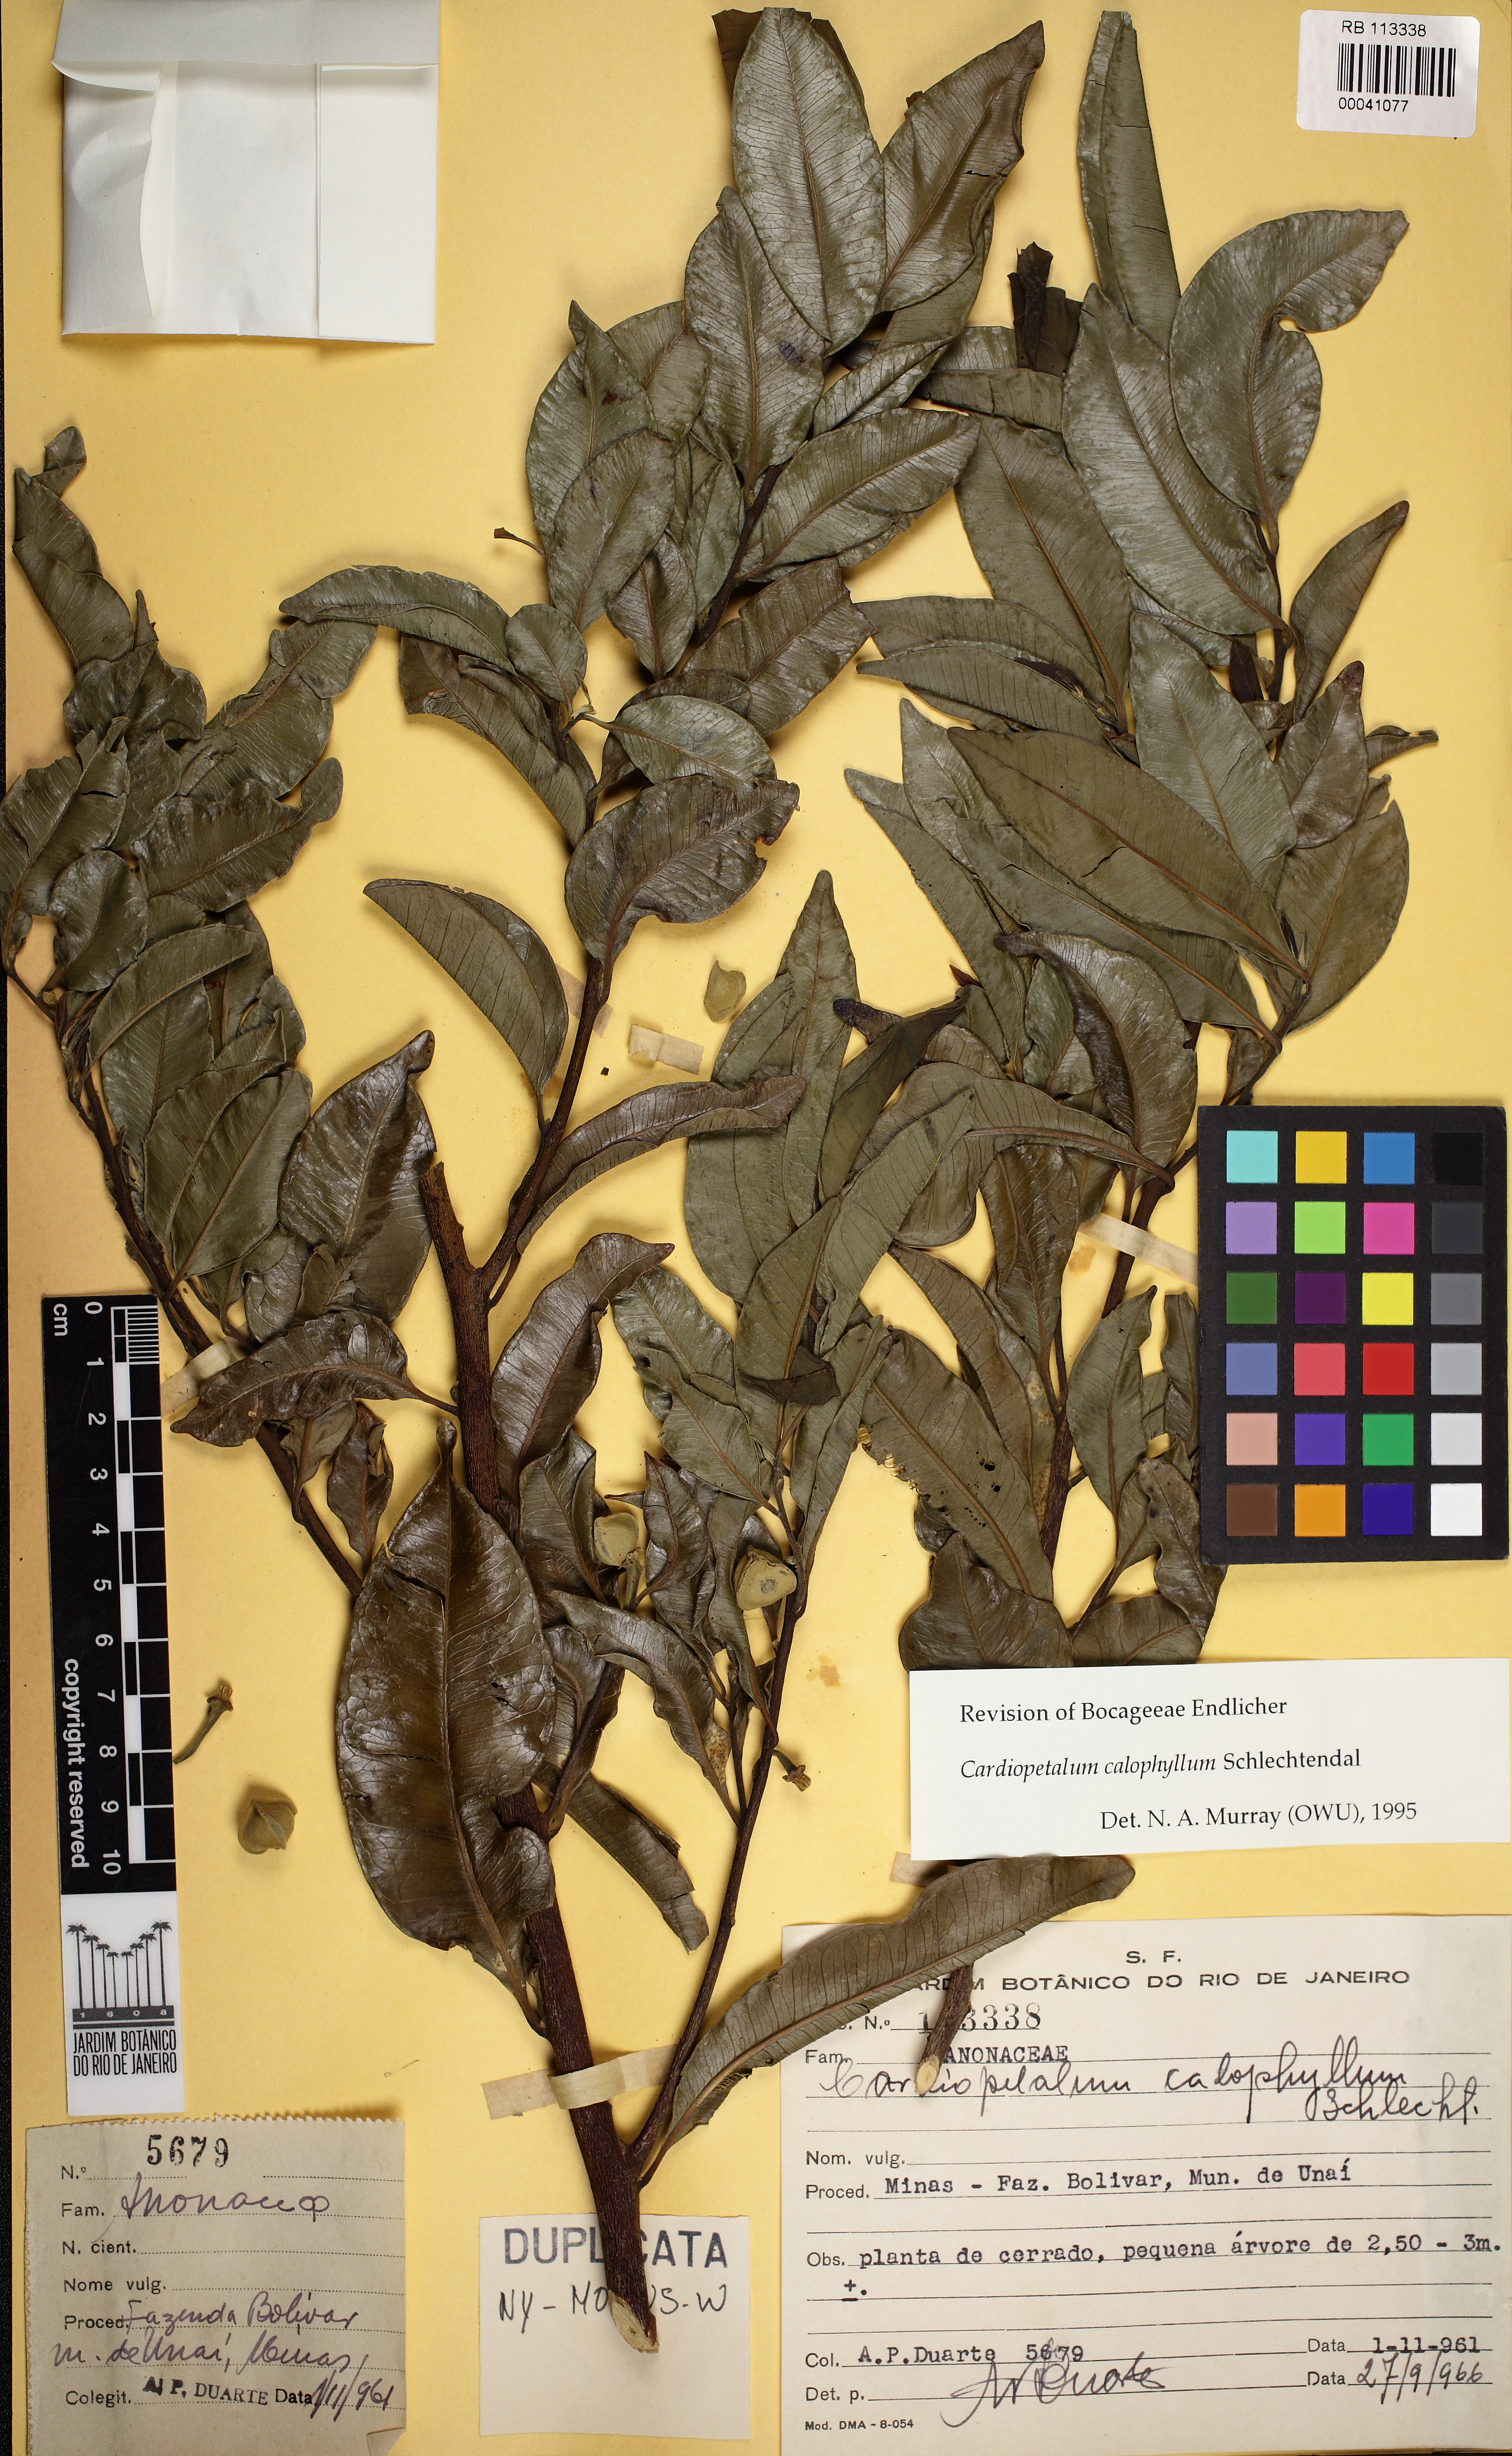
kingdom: Plantae
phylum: Tracheophyta
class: Magnoliopsida
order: Magnoliales
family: Annonaceae
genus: Cardiopetalum
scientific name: Cardiopetalum calophyllum
